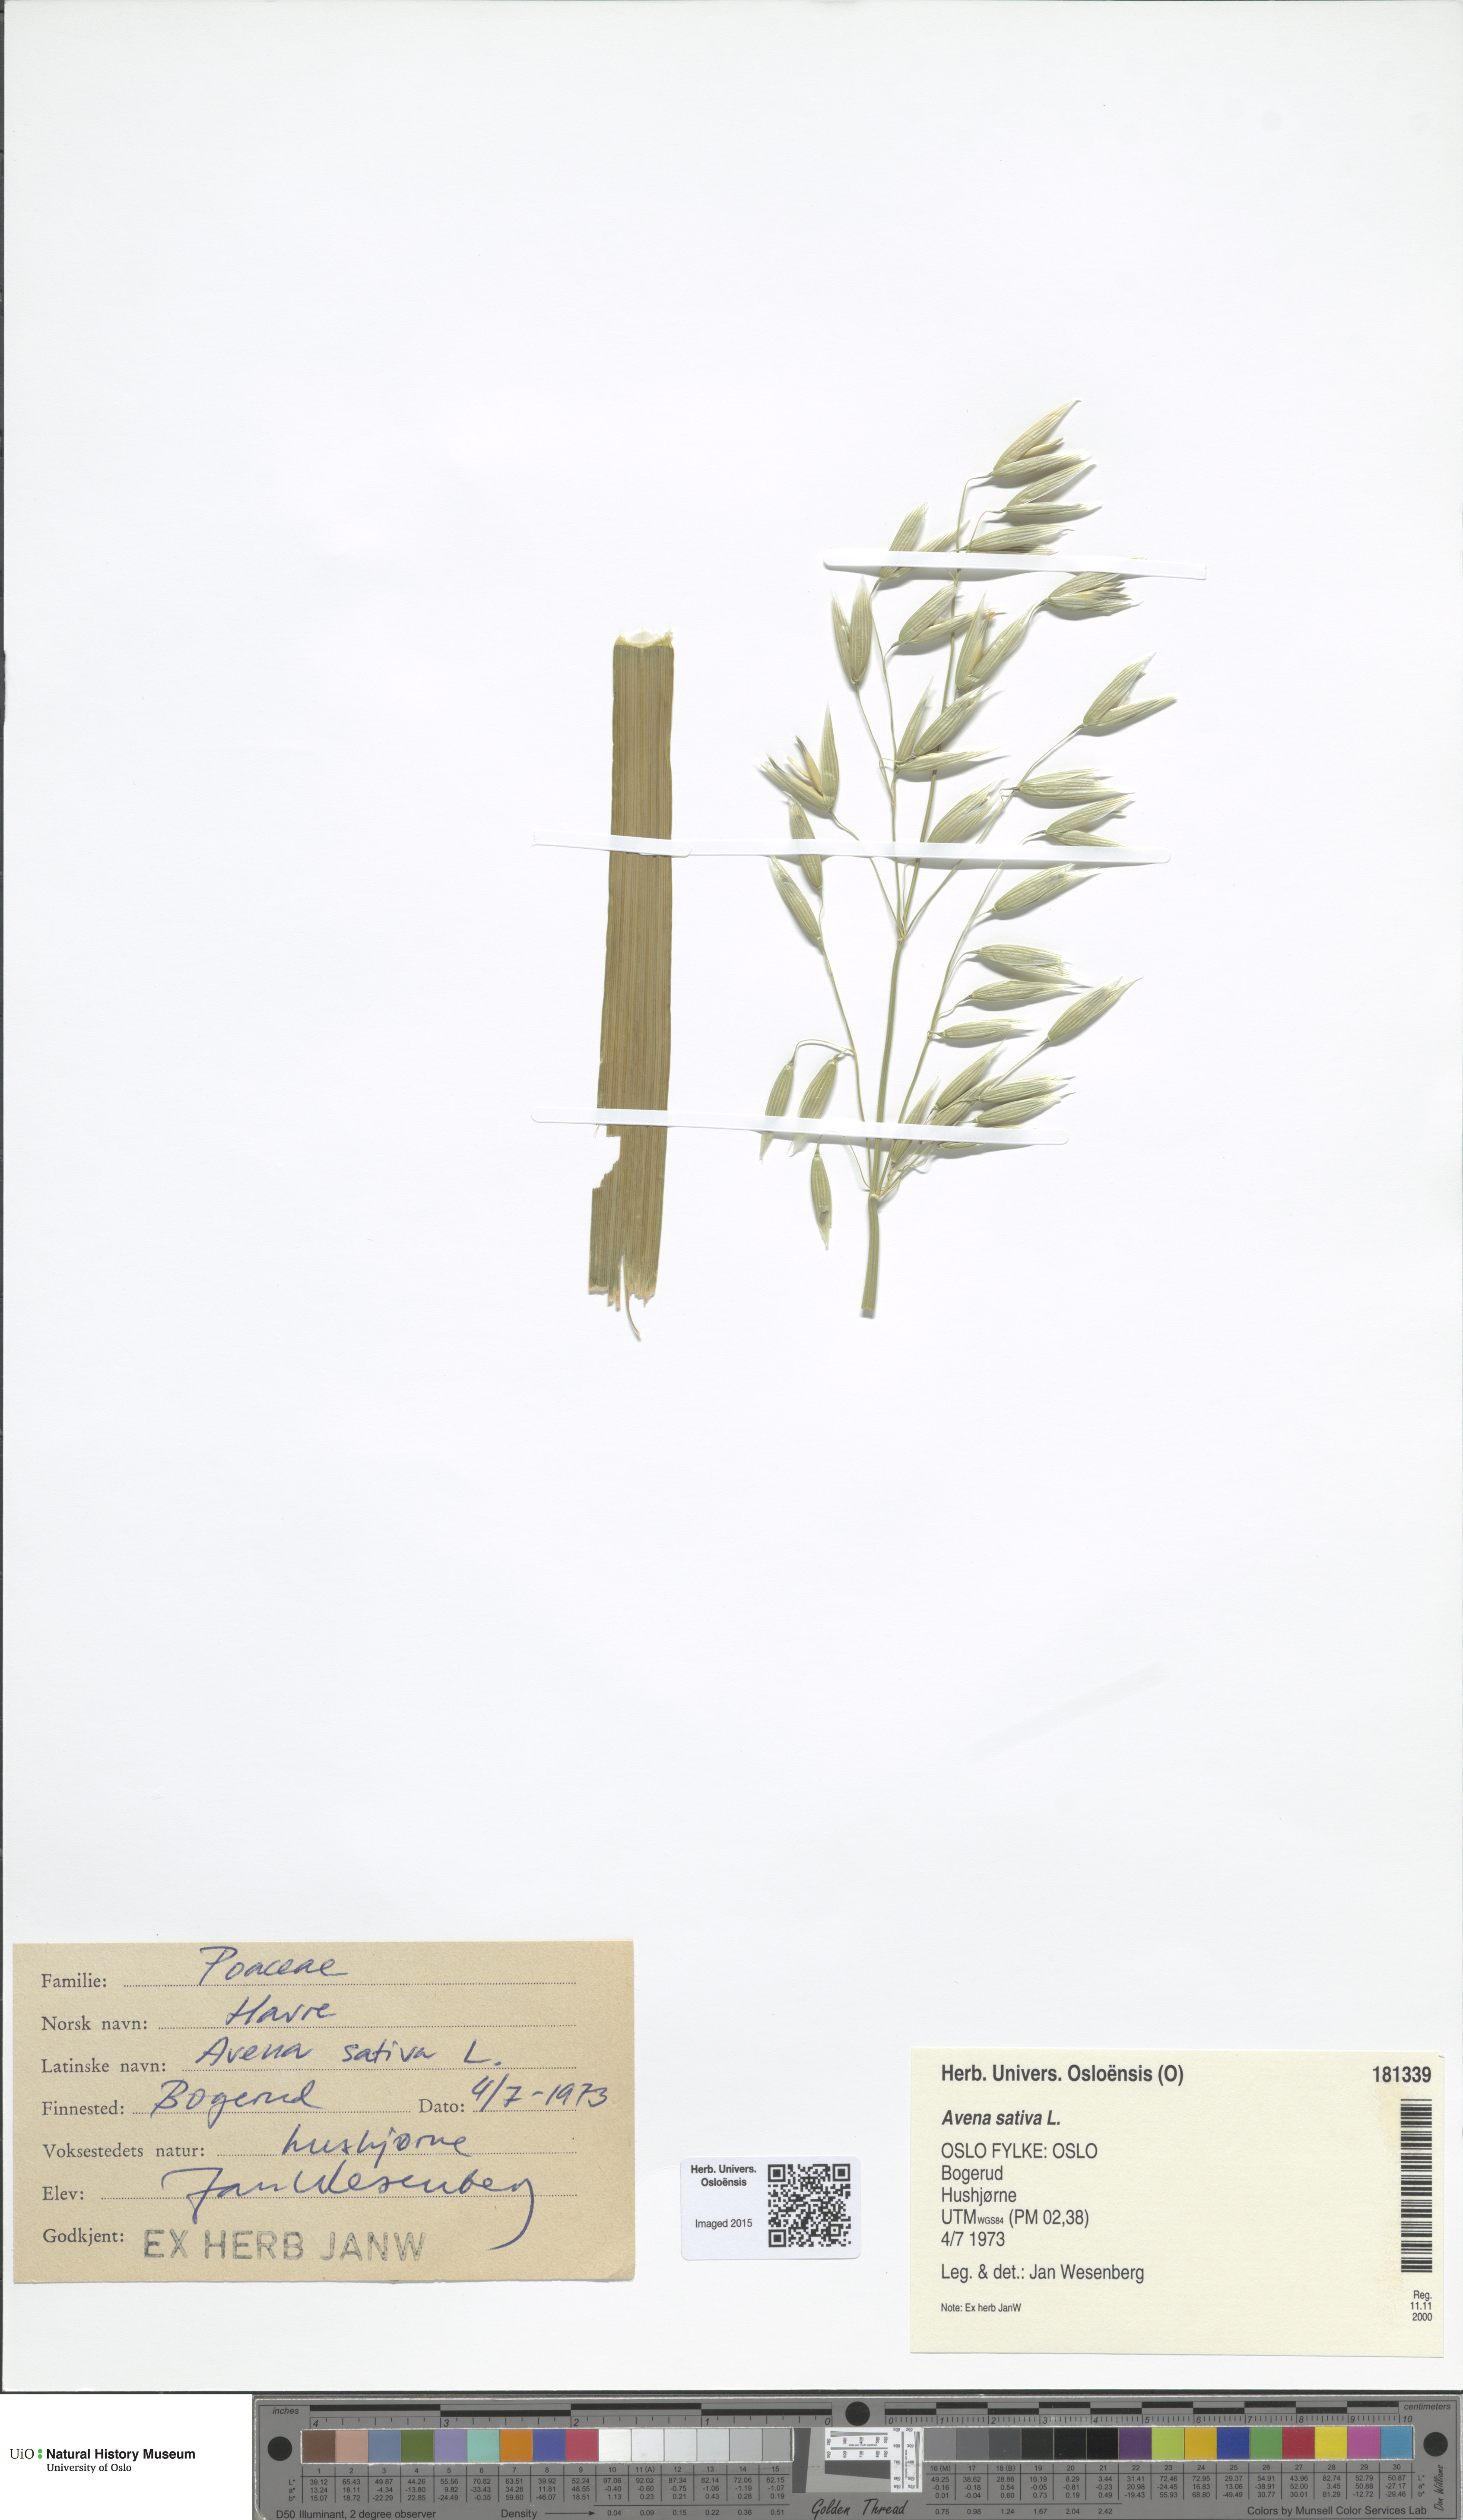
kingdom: Plantae
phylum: Tracheophyta
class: Liliopsida
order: Poales
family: Poaceae
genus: Avena
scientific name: Avena sativa
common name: Oat
